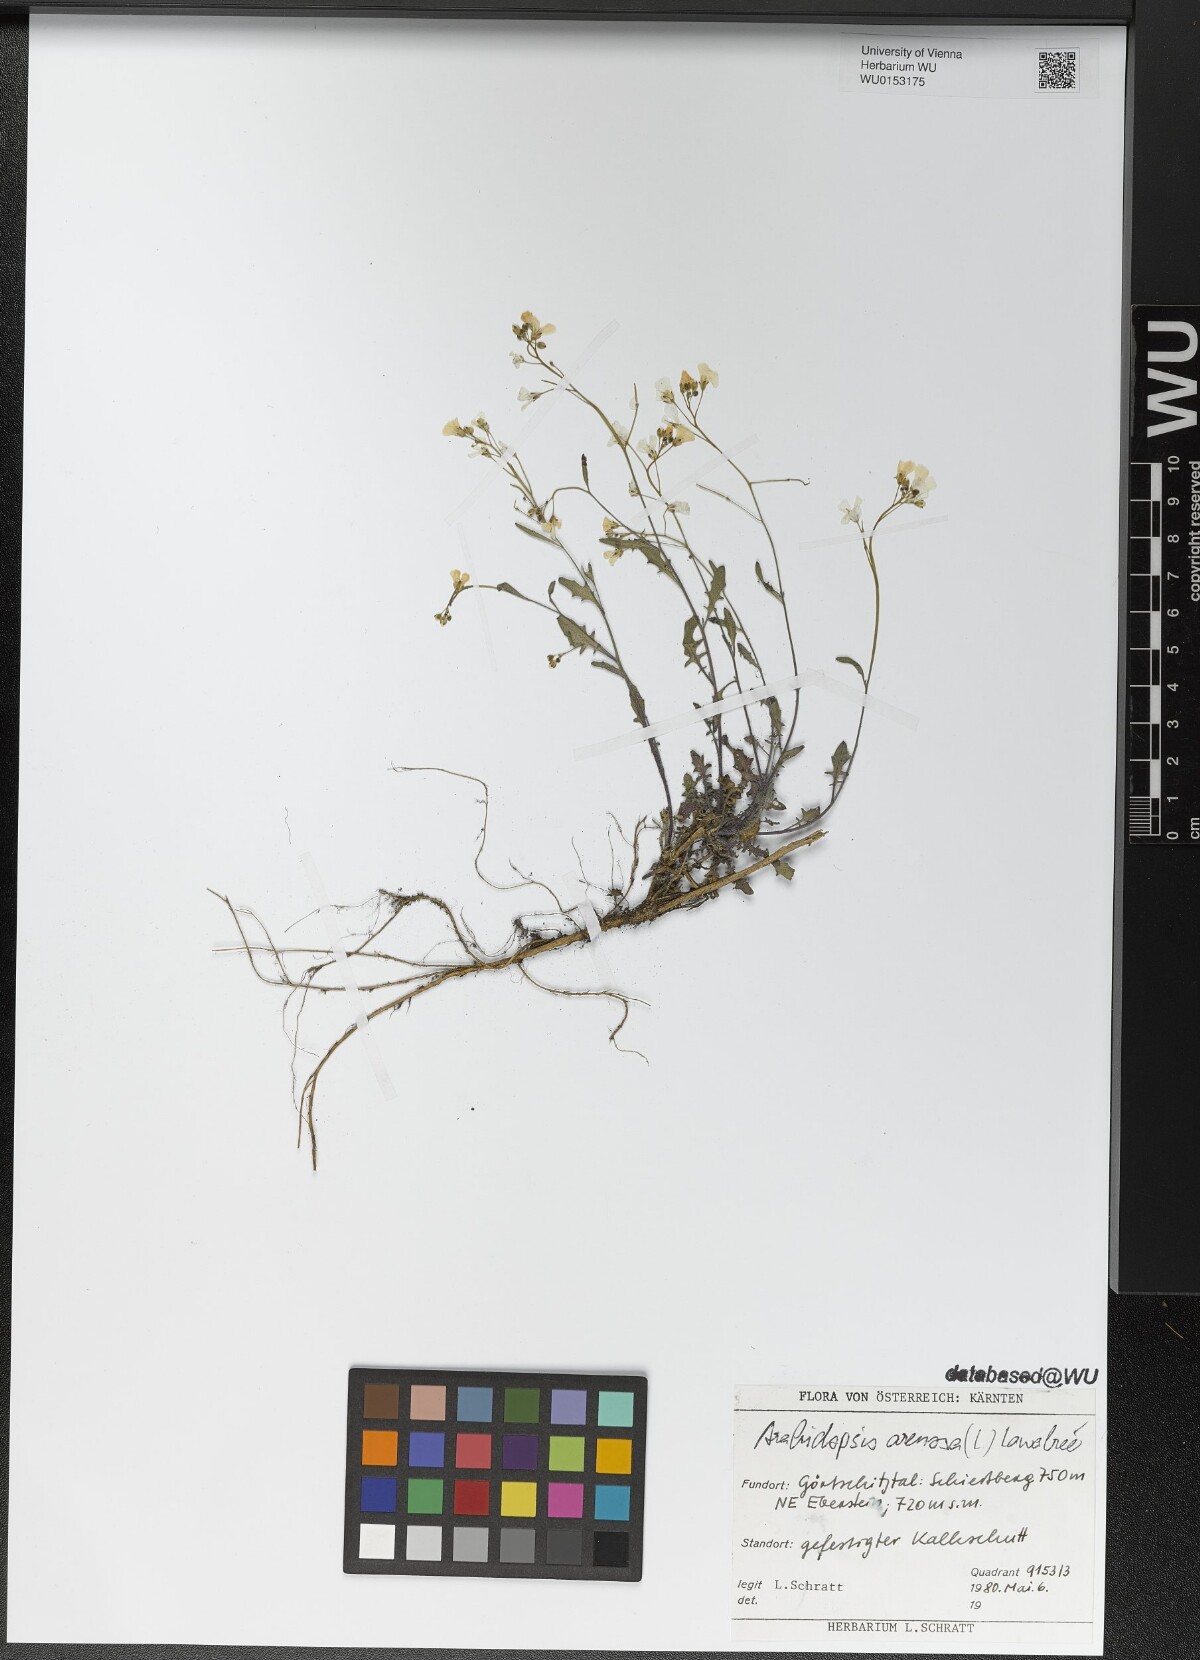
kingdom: Plantae
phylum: Tracheophyta
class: Magnoliopsida
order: Brassicales
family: Brassicaceae
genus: Arabidopsis
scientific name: Arabidopsis arenosa
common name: Sand rock-cress
